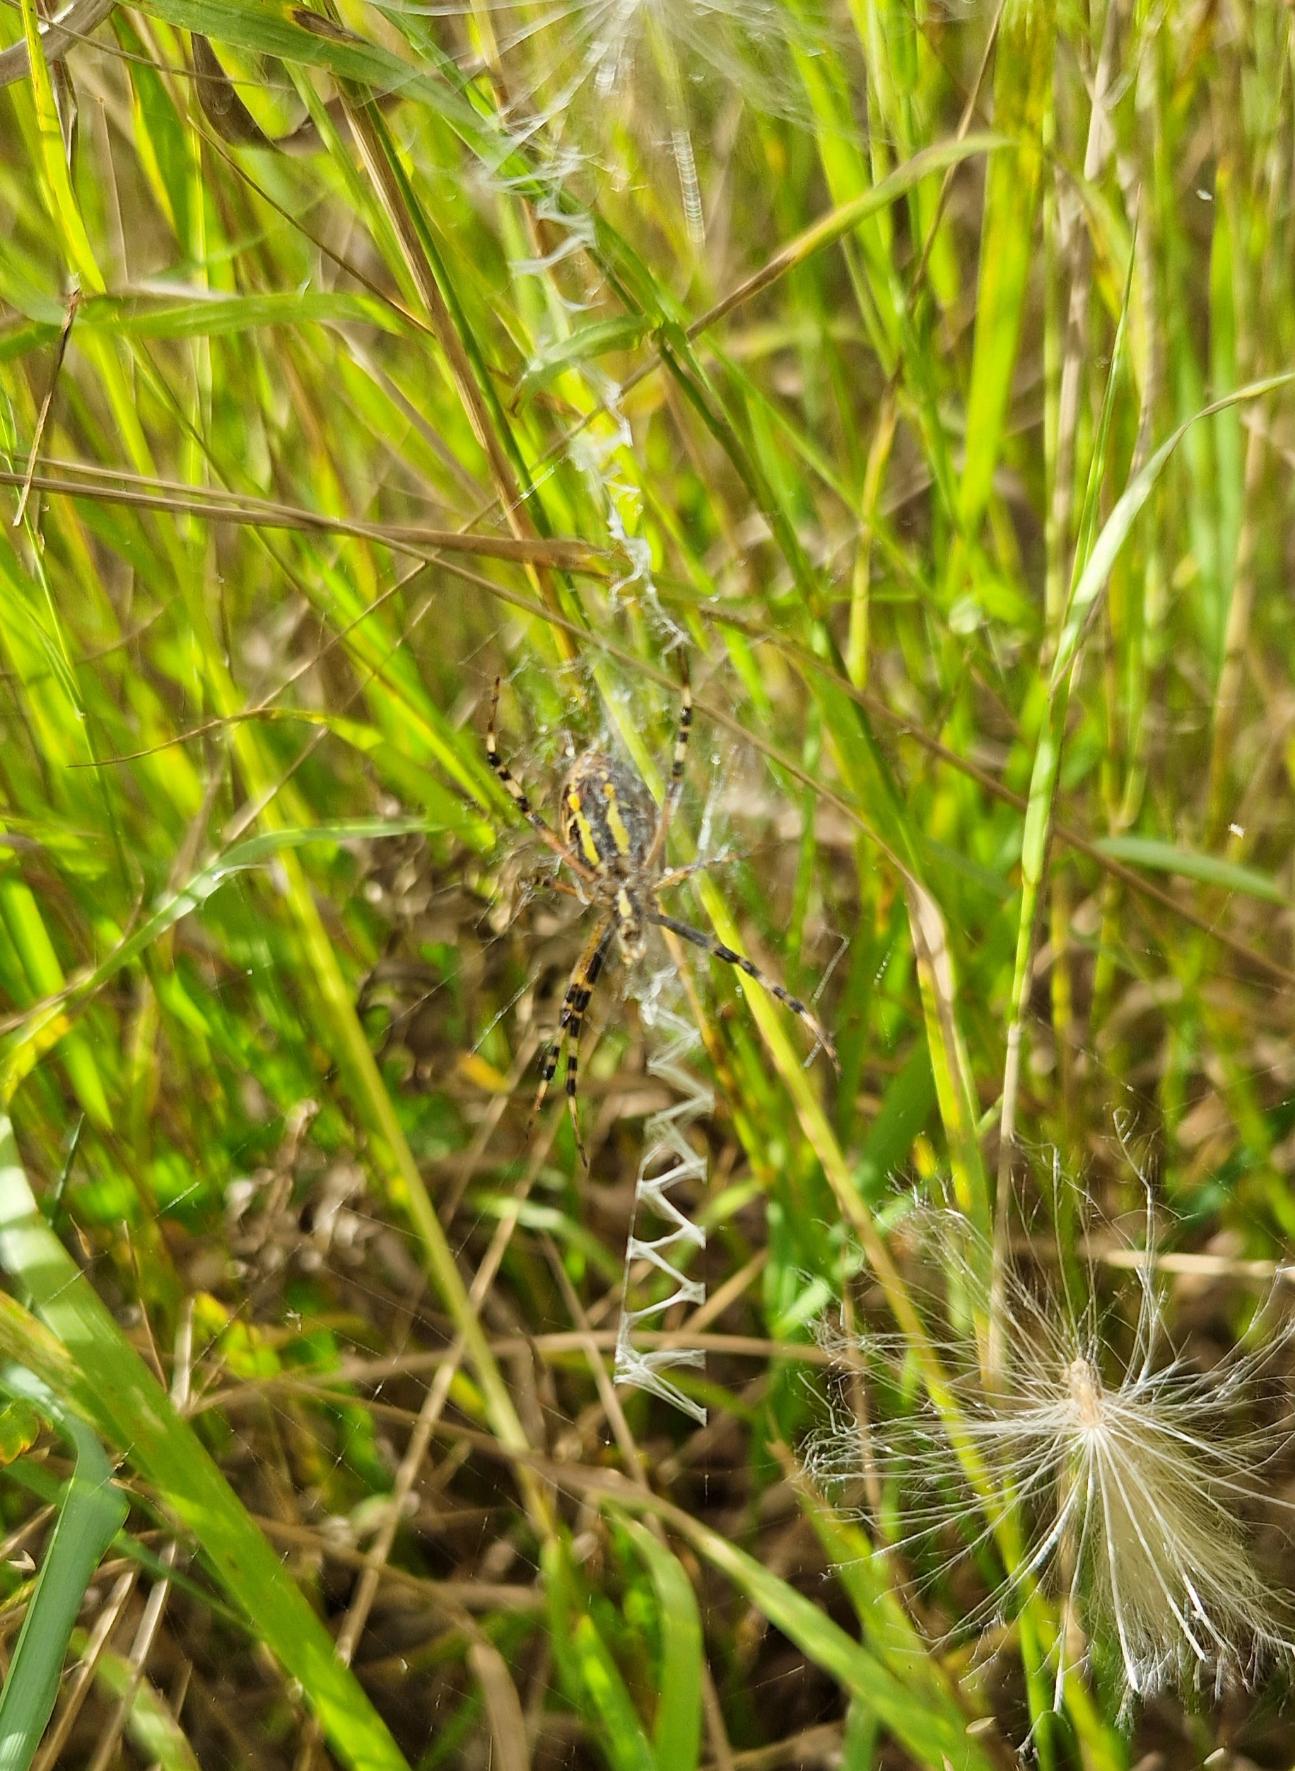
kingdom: Animalia
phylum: Arthropoda
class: Arachnida
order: Araneae
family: Araneidae
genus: Argiope
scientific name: Argiope bruennichi
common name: Hvepseedderkop
